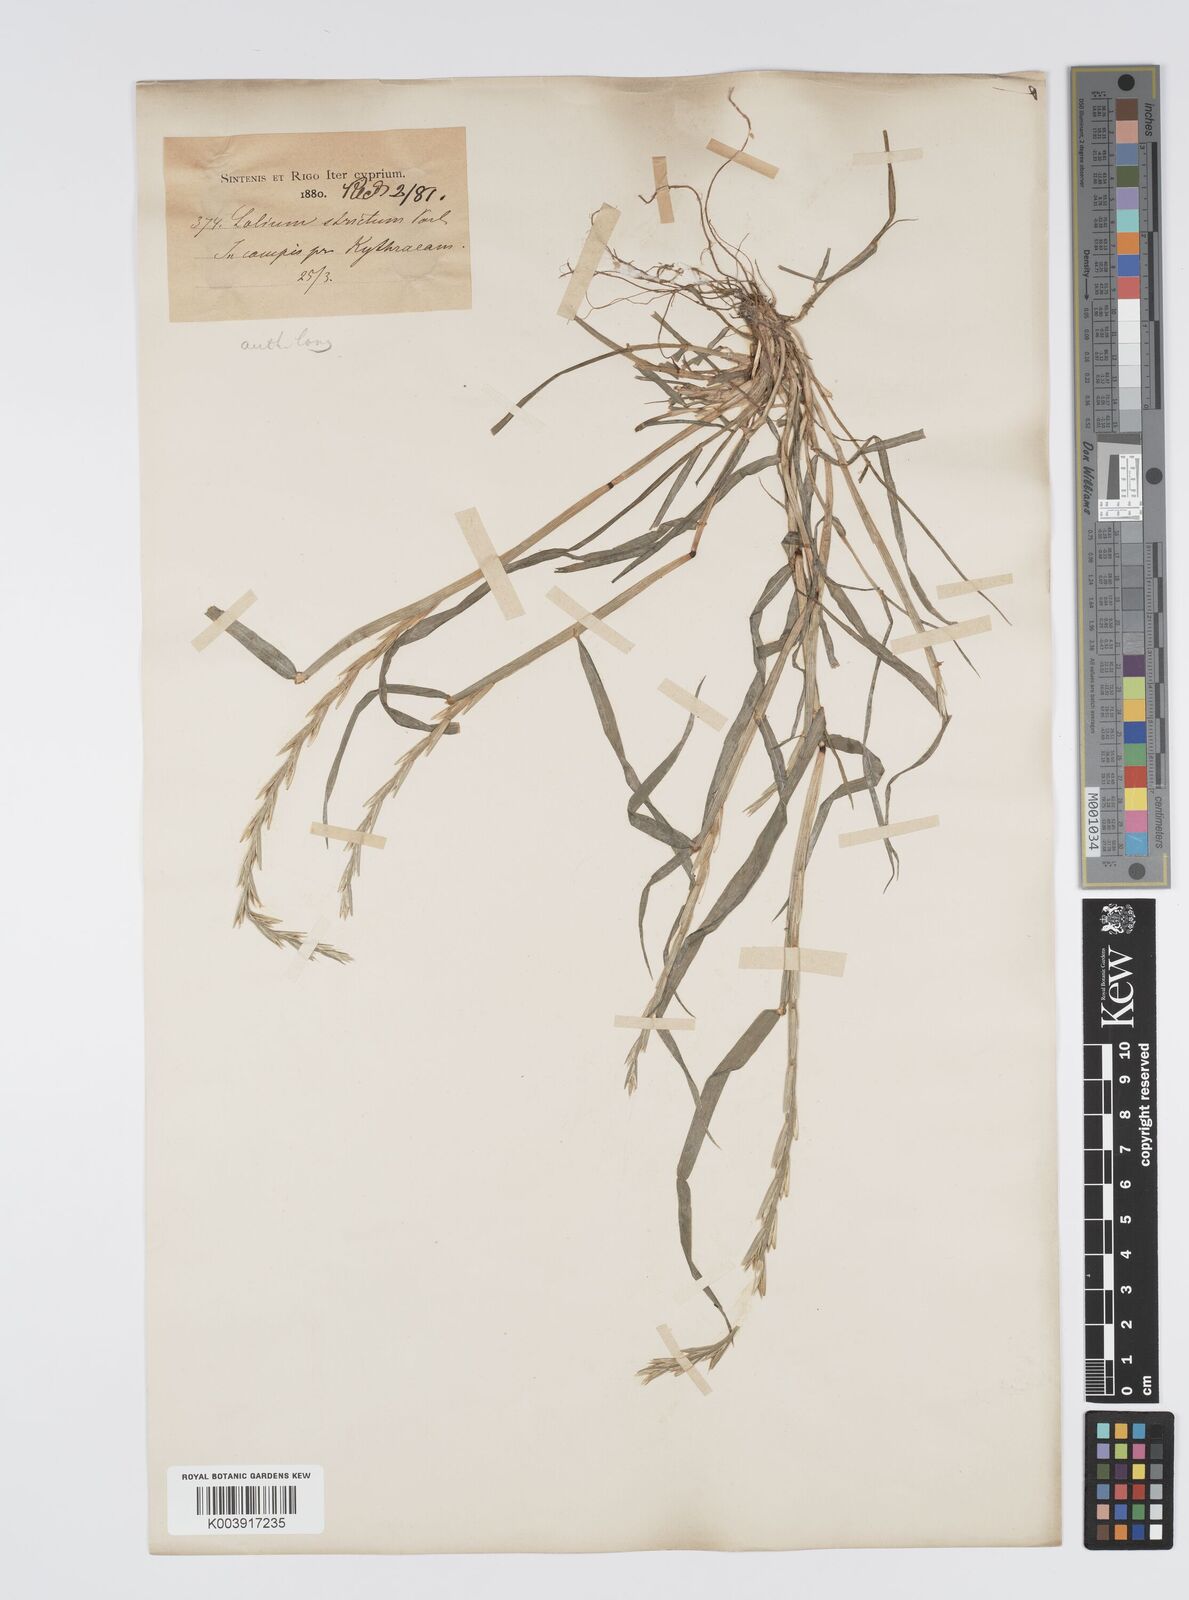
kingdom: Plantae
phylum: Tracheophyta
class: Liliopsida
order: Poales
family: Poaceae
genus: Lolium
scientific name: Lolium rigidum
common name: Wimmera ryegrass
